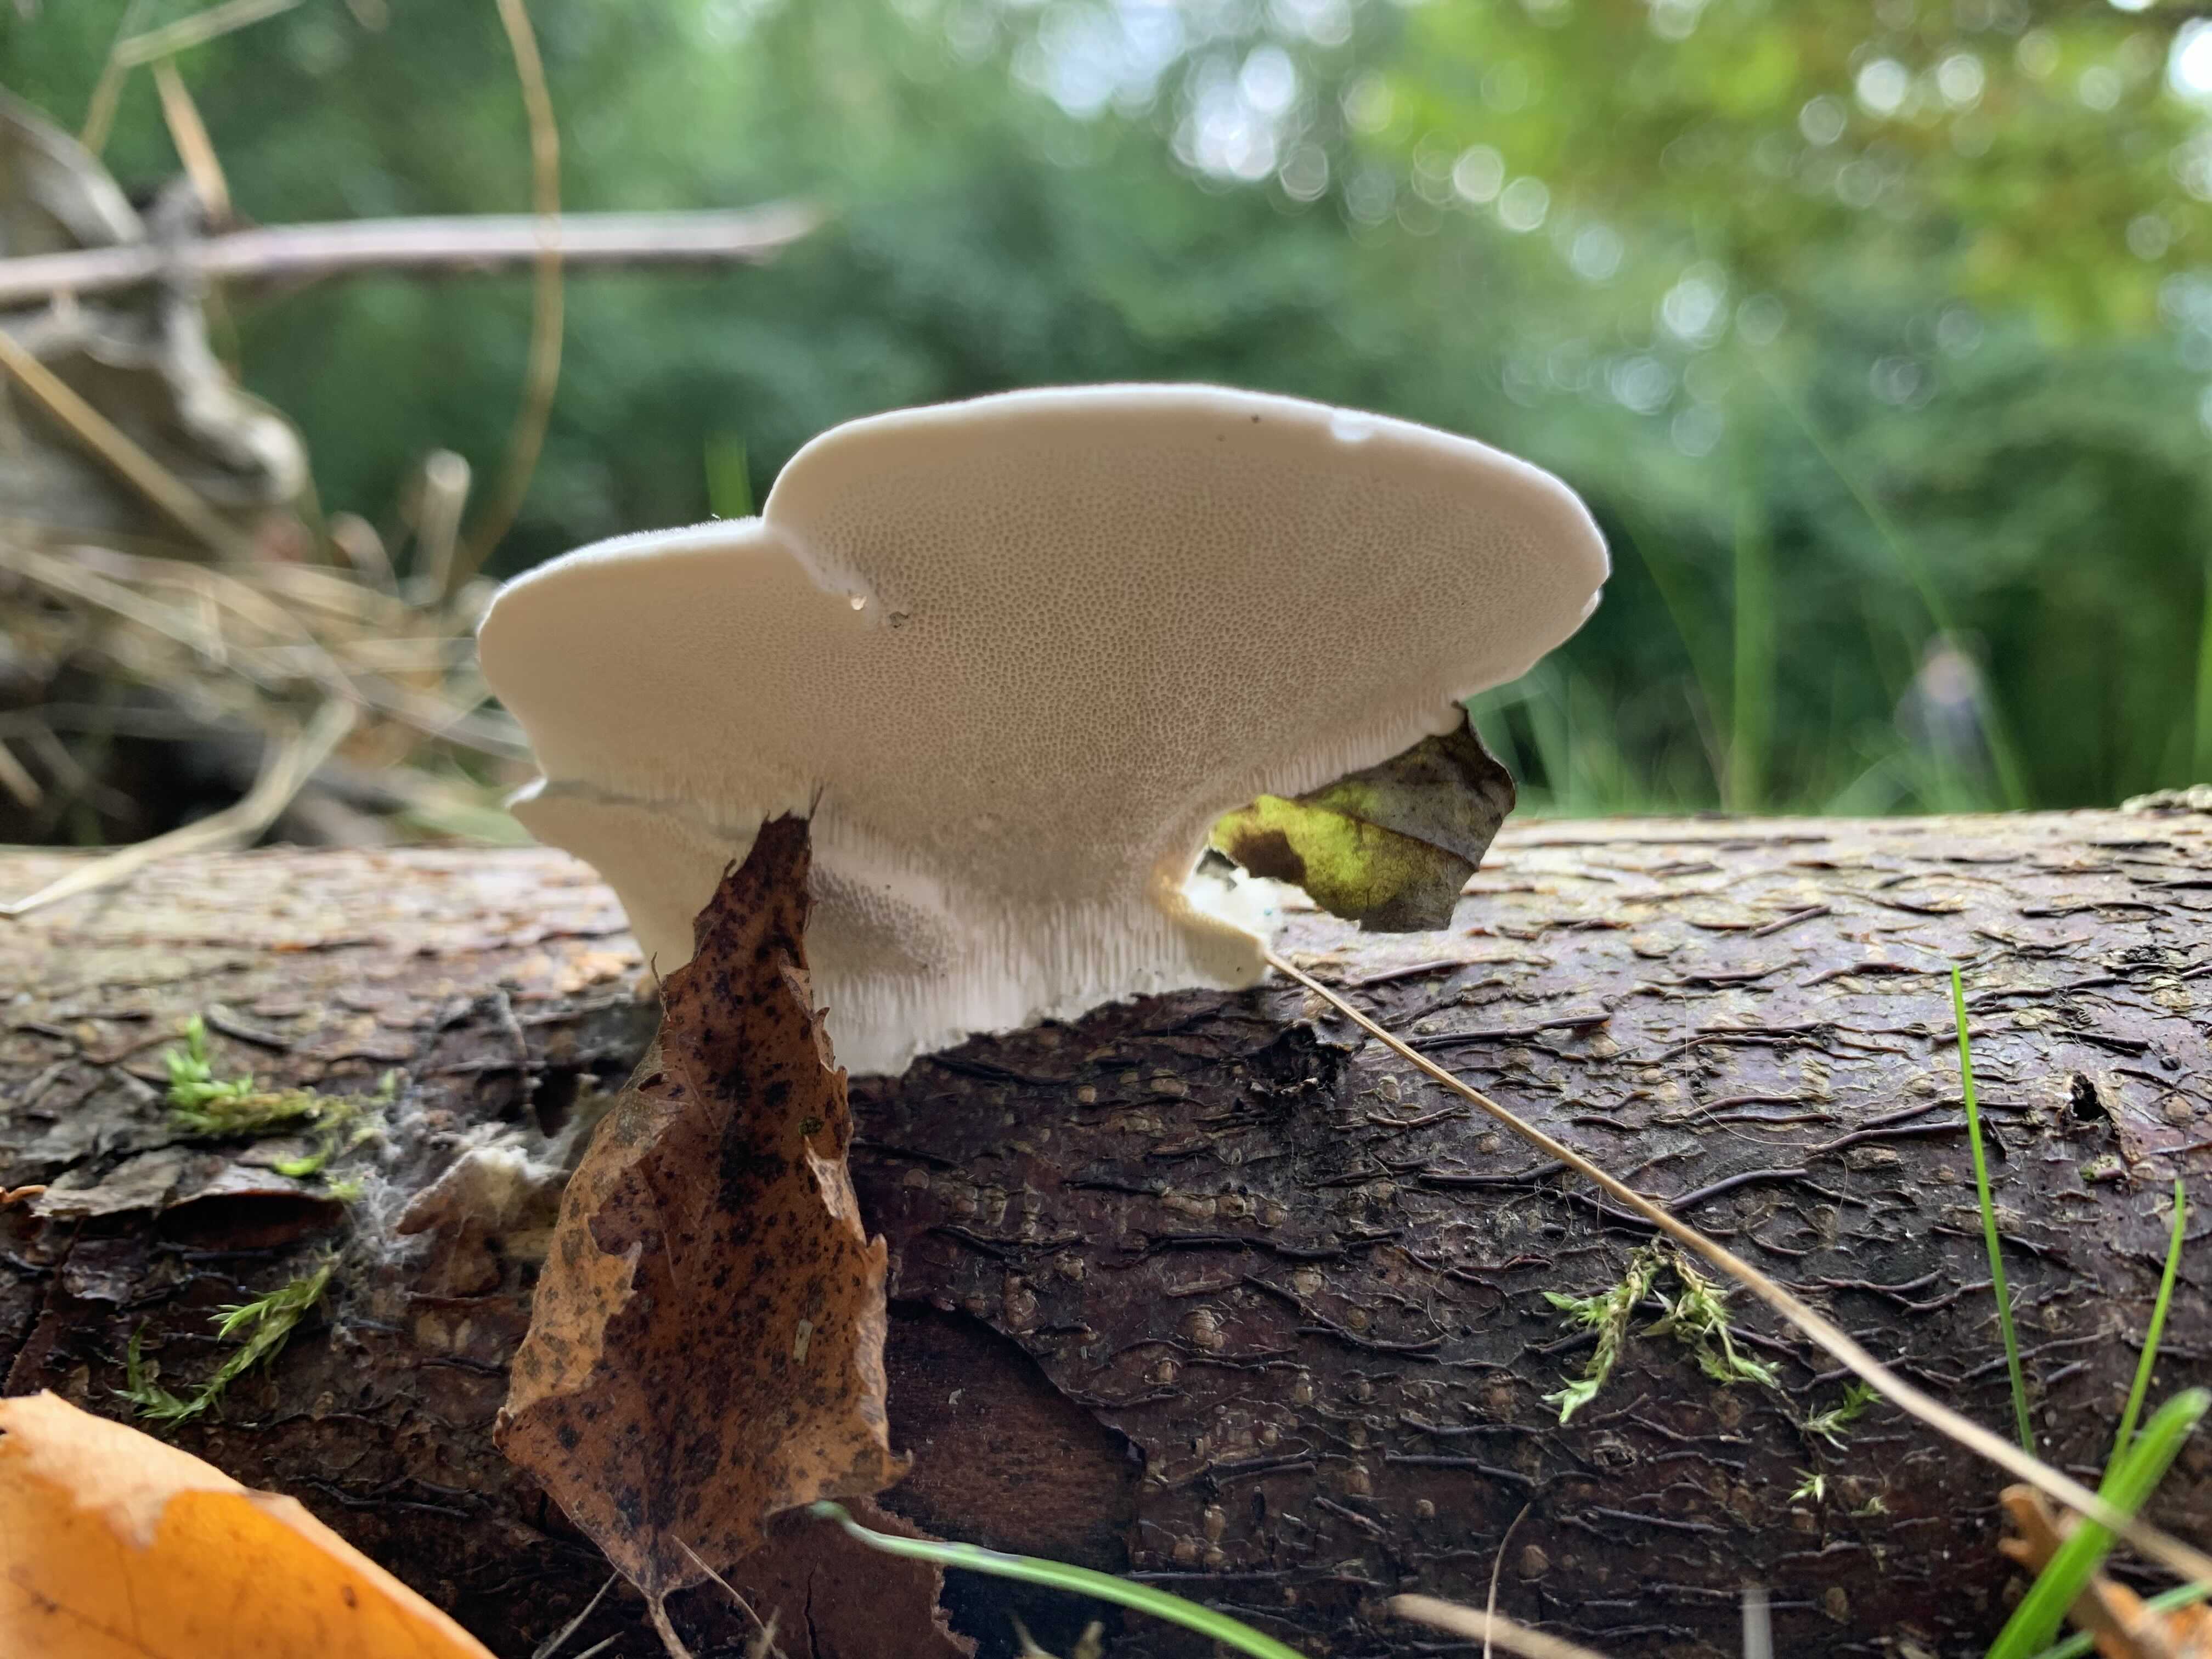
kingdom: Fungi
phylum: Basidiomycota
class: Agaricomycetes
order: Polyporales
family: Polyporaceae
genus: Trametes
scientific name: Trametes hirsuta
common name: håret læderporesvamp
